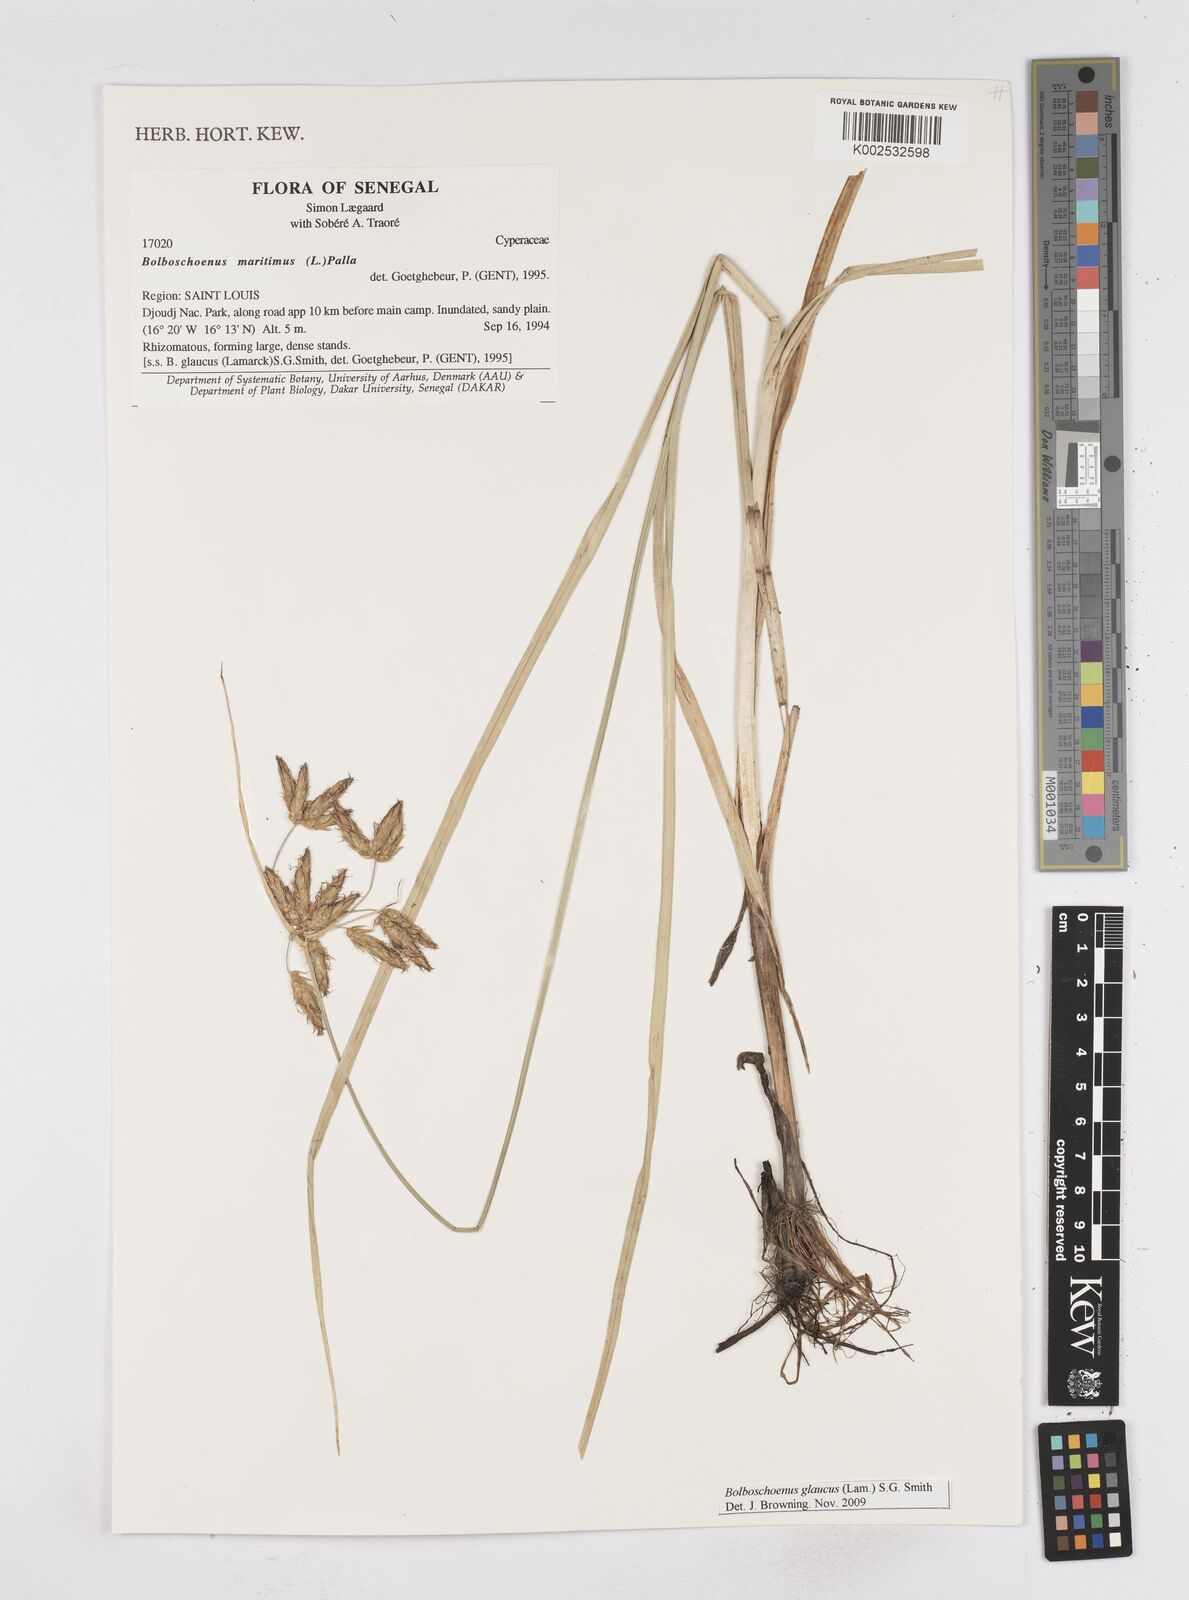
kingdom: Plantae
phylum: Tracheophyta
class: Liliopsida
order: Poales
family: Cyperaceae
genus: Bolboschoenus
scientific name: Bolboschoenus glaucus
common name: Tuberous bulrush
